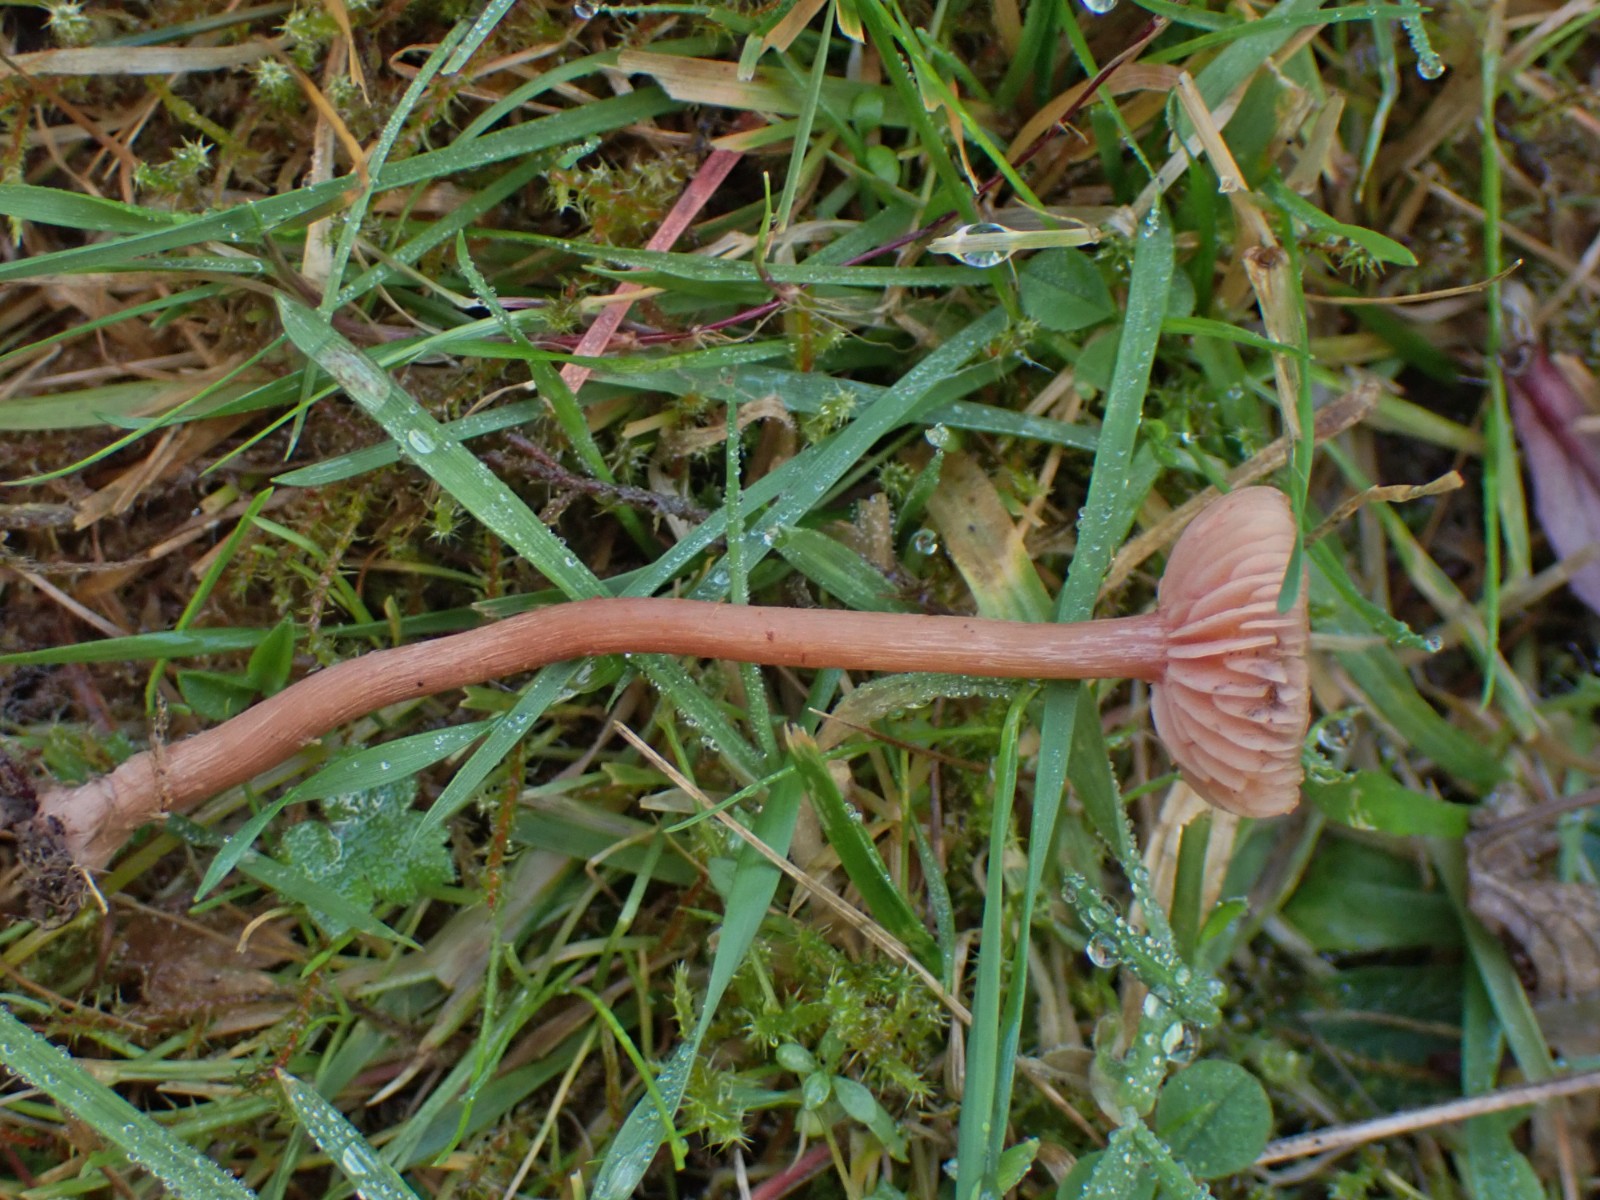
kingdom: Fungi
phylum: Basidiomycota
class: Agaricomycetes
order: Agaricales
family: Hydnangiaceae
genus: Laccaria
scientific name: Laccaria laccata
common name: rød ametysthat
